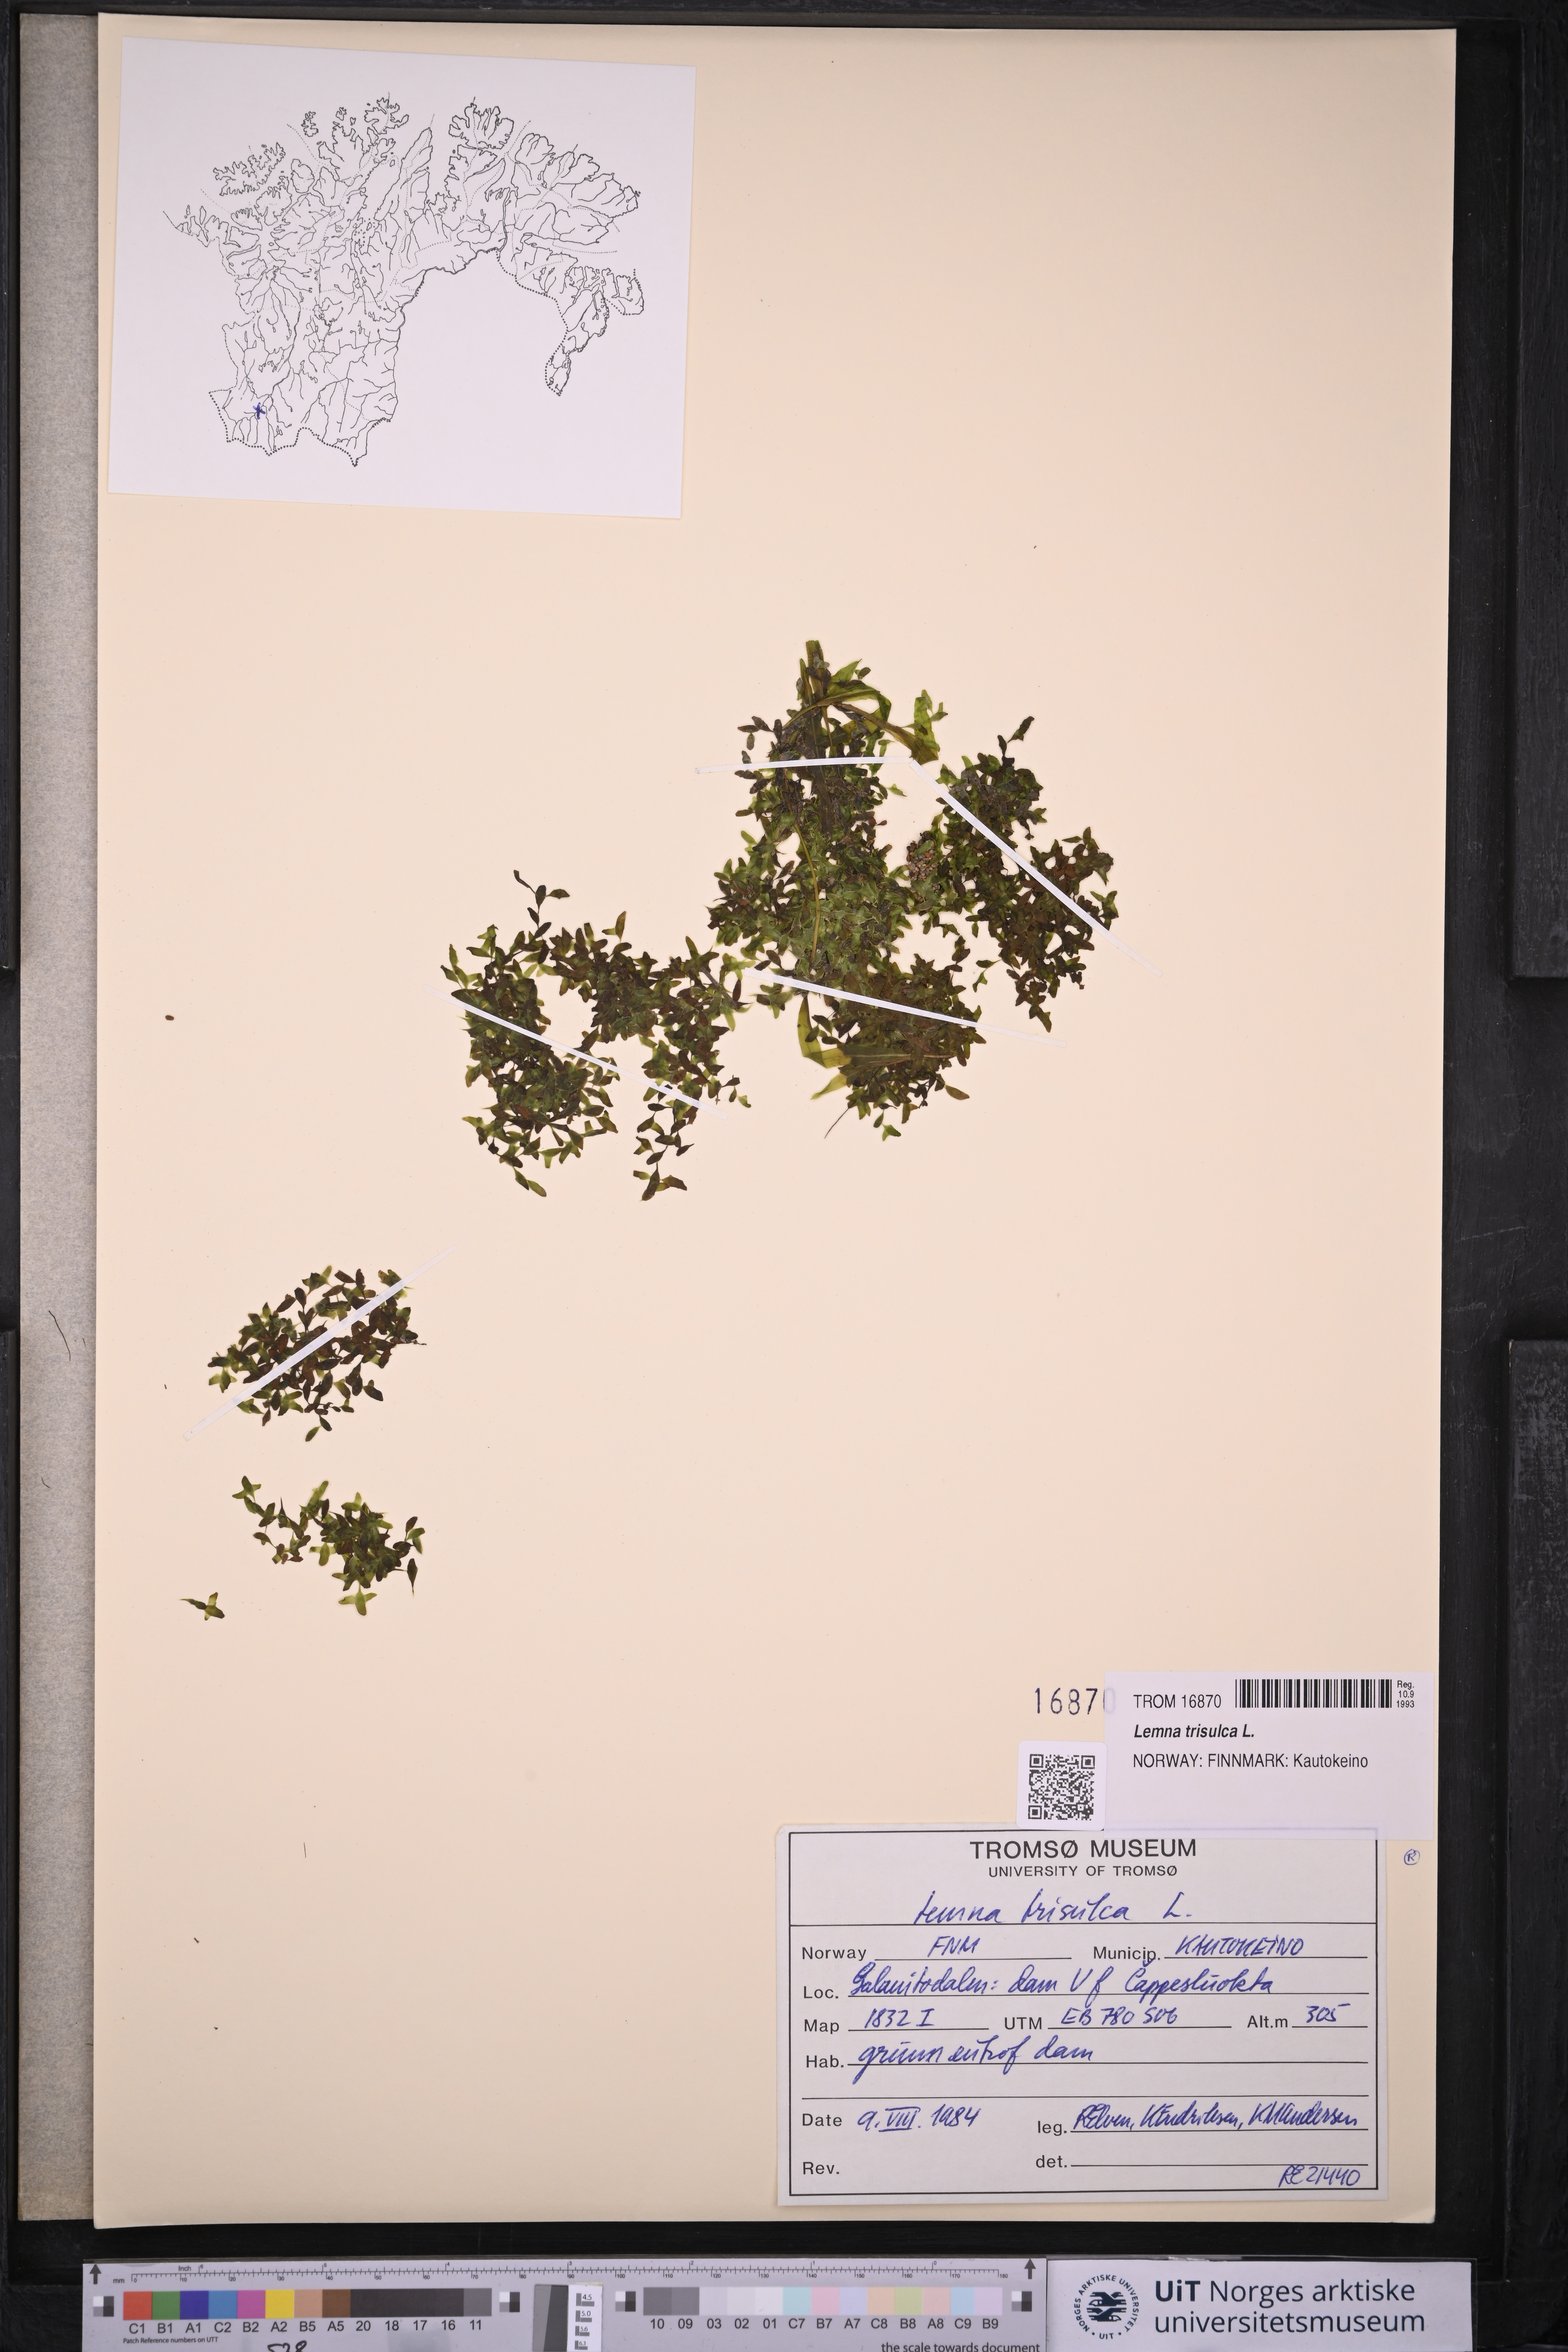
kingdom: Plantae
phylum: Tracheophyta
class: Liliopsida
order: Alismatales
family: Araceae
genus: Lemna
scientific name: Lemna trisulca
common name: Ivy-leaved duckweed
